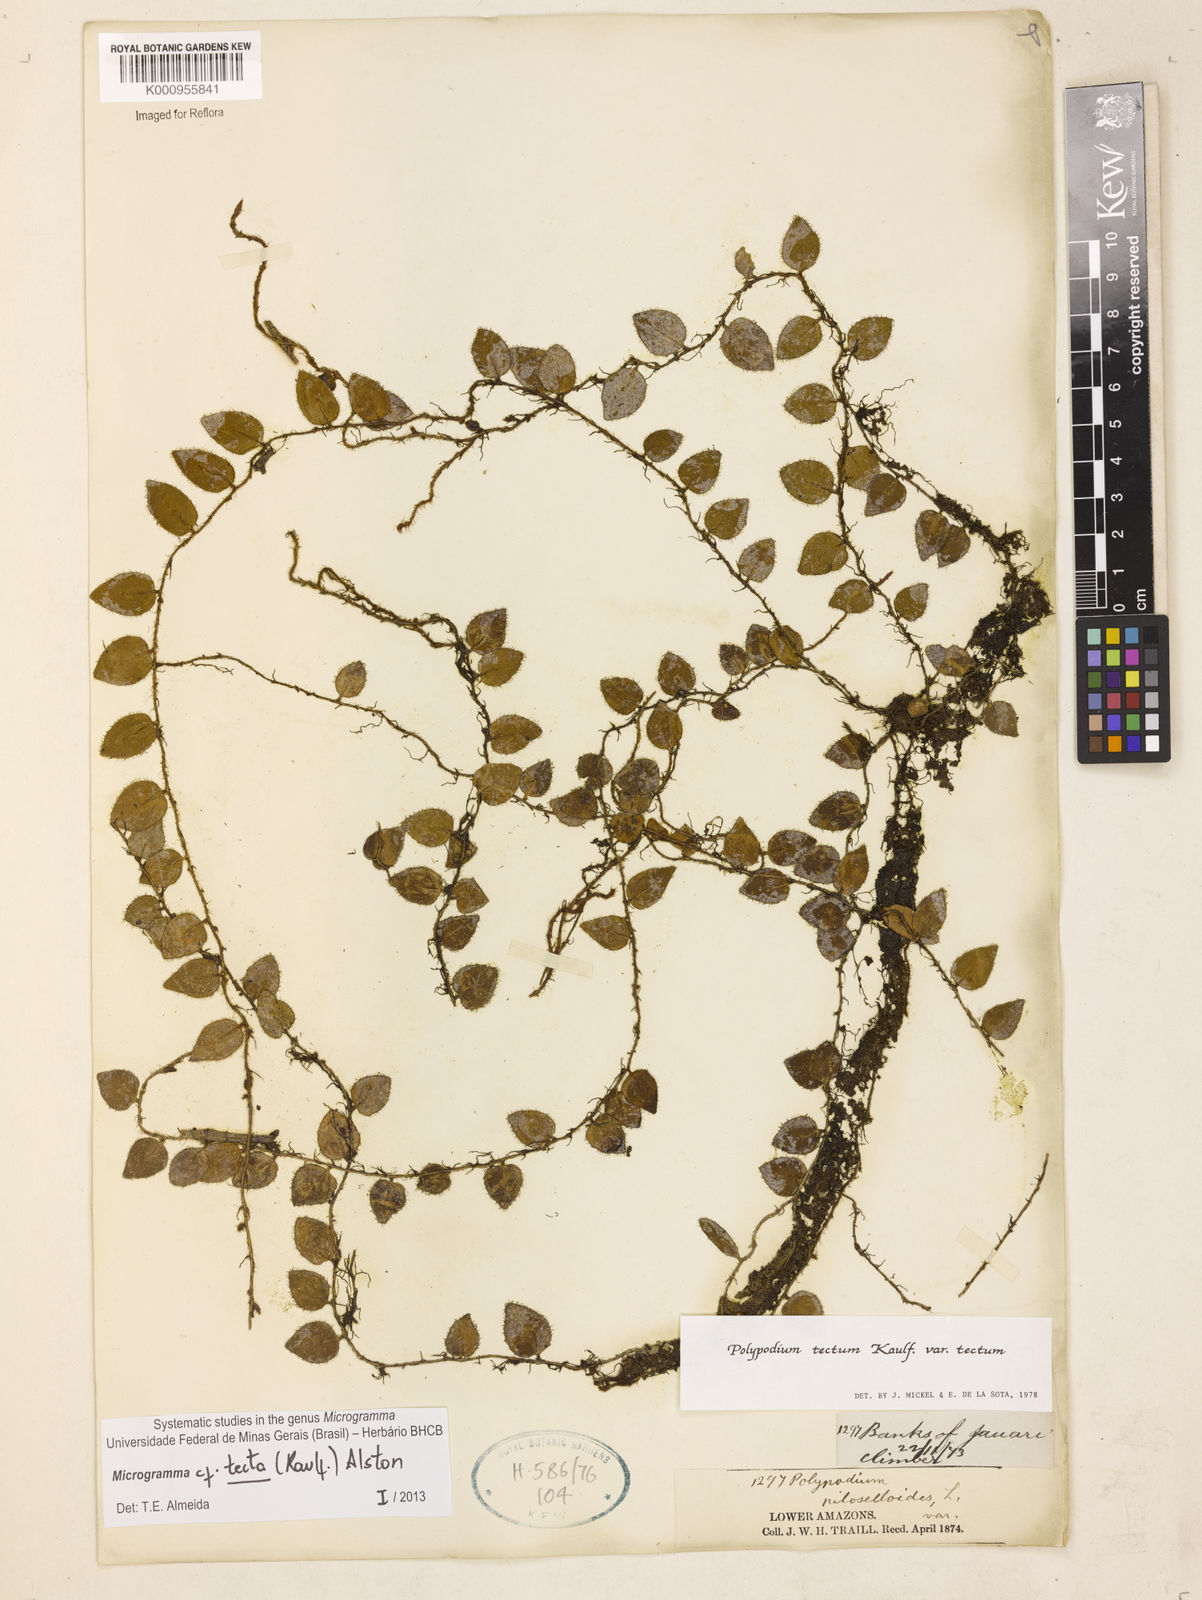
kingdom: Plantae
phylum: Tracheophyta
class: Polypodiopsida
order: Polypodiales
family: Polypodiaceae
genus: Microgramma
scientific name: Microgramma tecta
